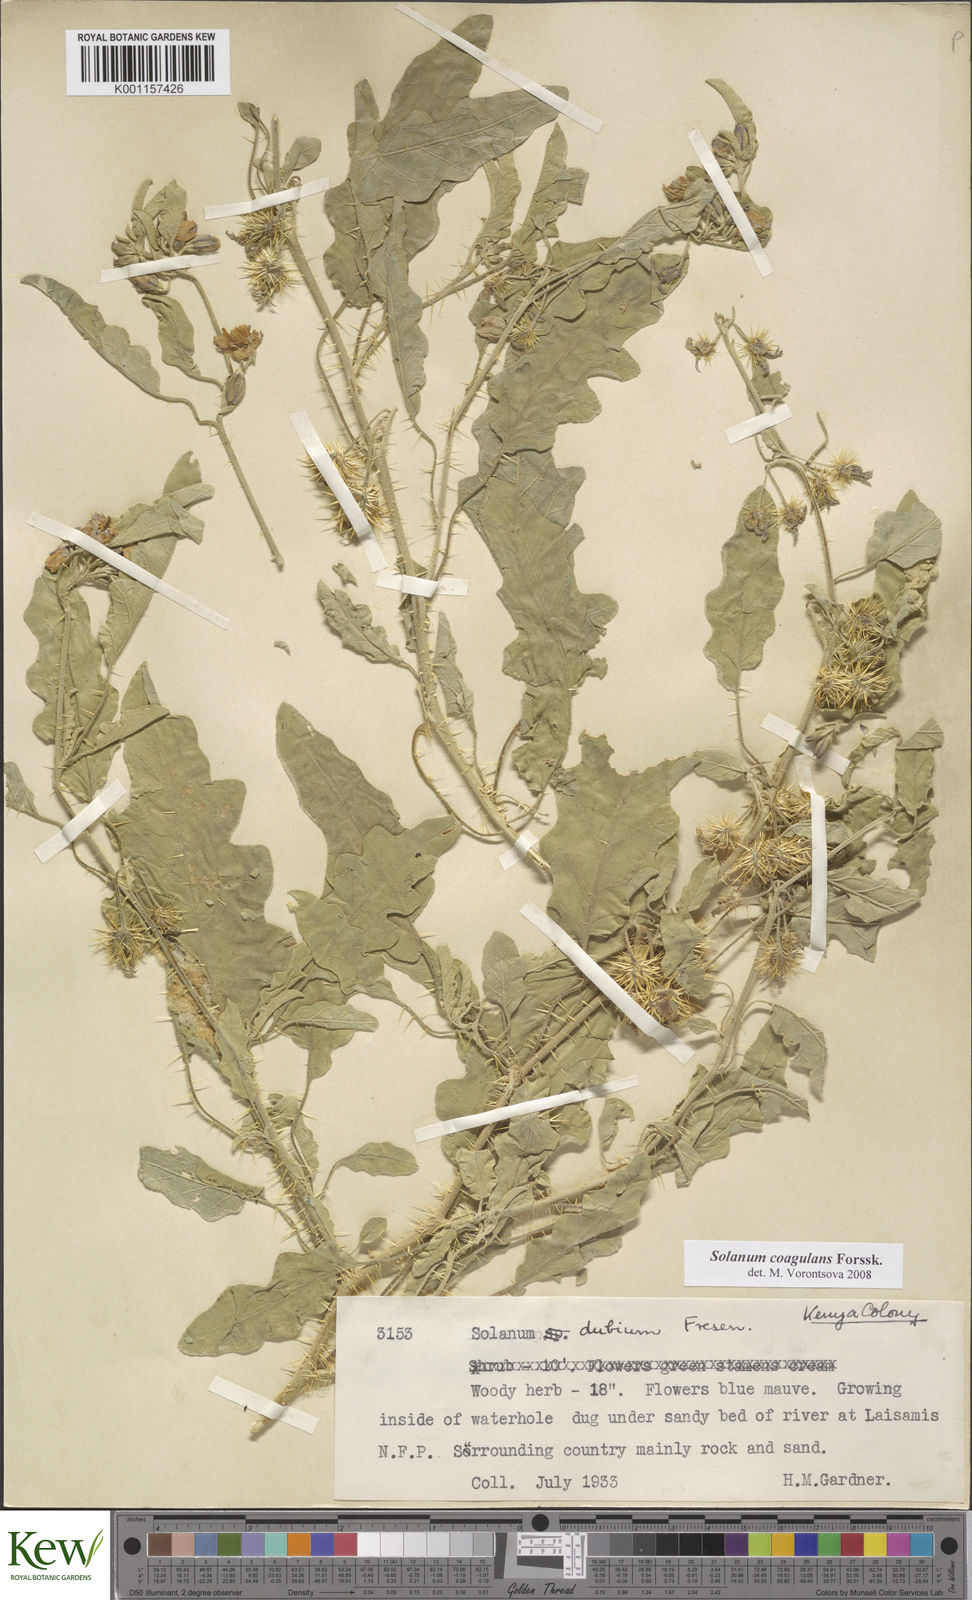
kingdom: Plantae
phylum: Tracheophyta
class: Magnoliopsida
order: Solanales
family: Solanaceae
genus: Solanum
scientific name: Solanum coagulans
